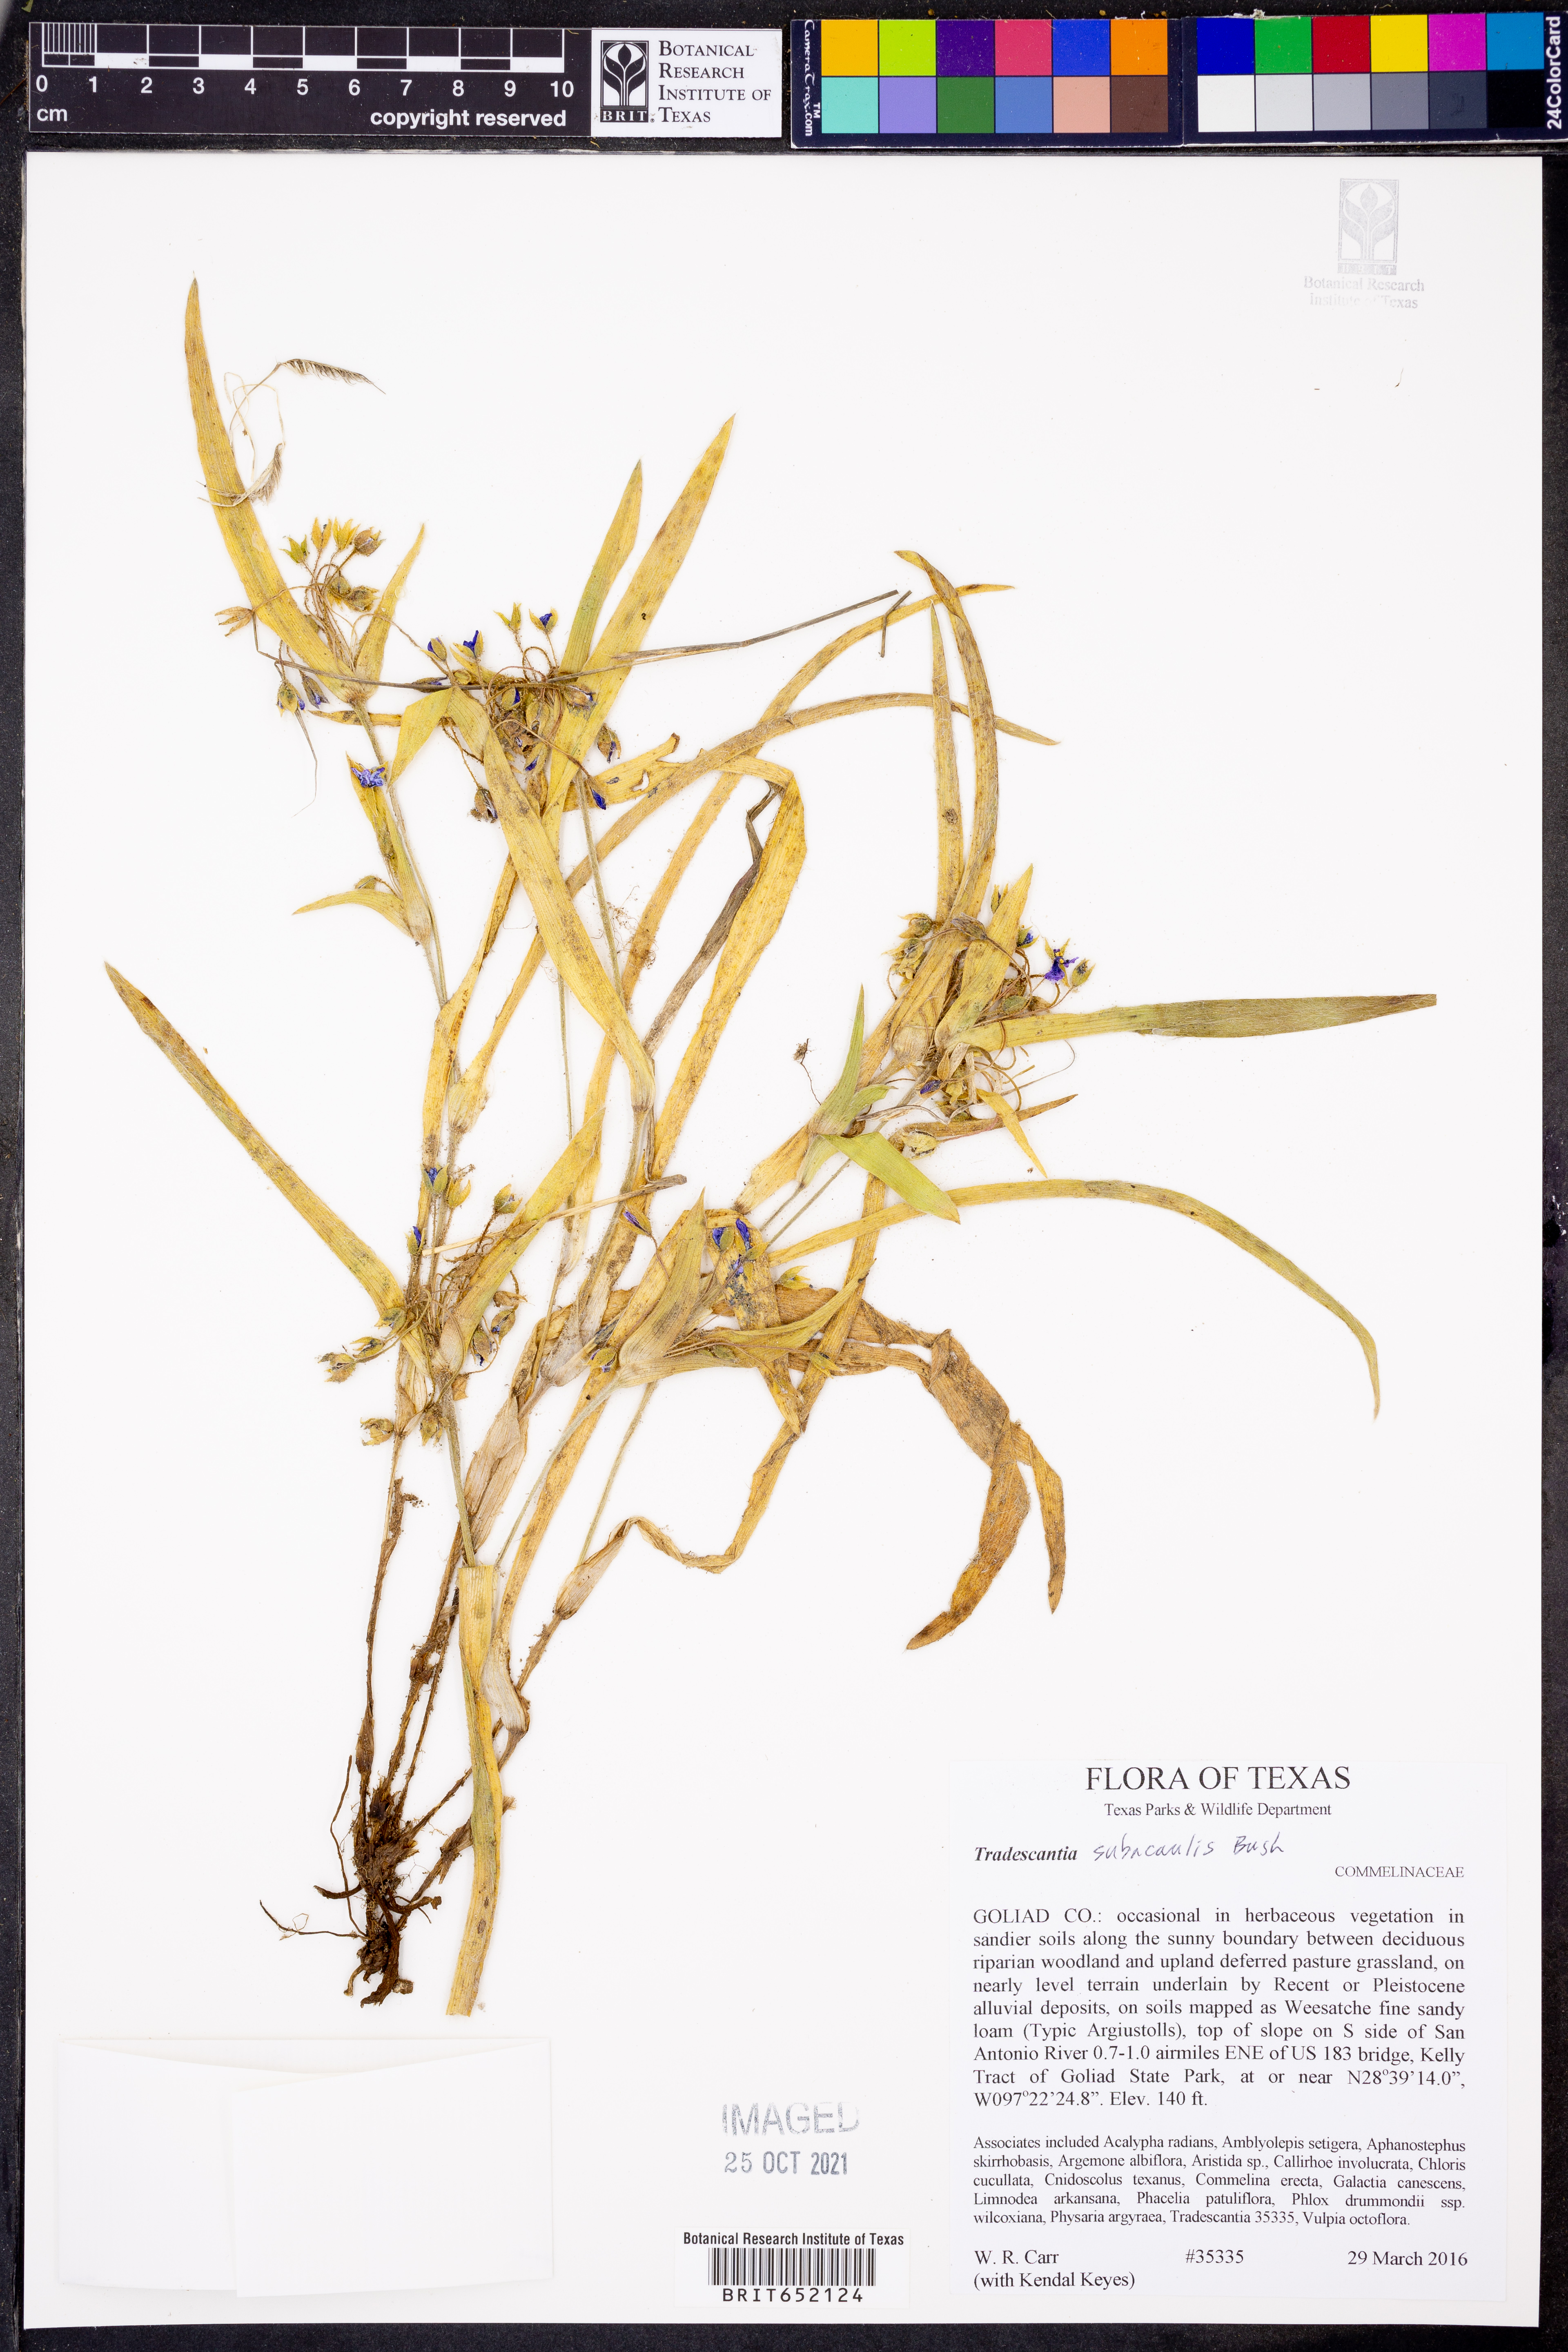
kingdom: Plantae
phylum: Tracheophyta
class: Liliopsida
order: Commelinales
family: Commelinaceae
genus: Tradescantia
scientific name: Tradescantia subacaulis
